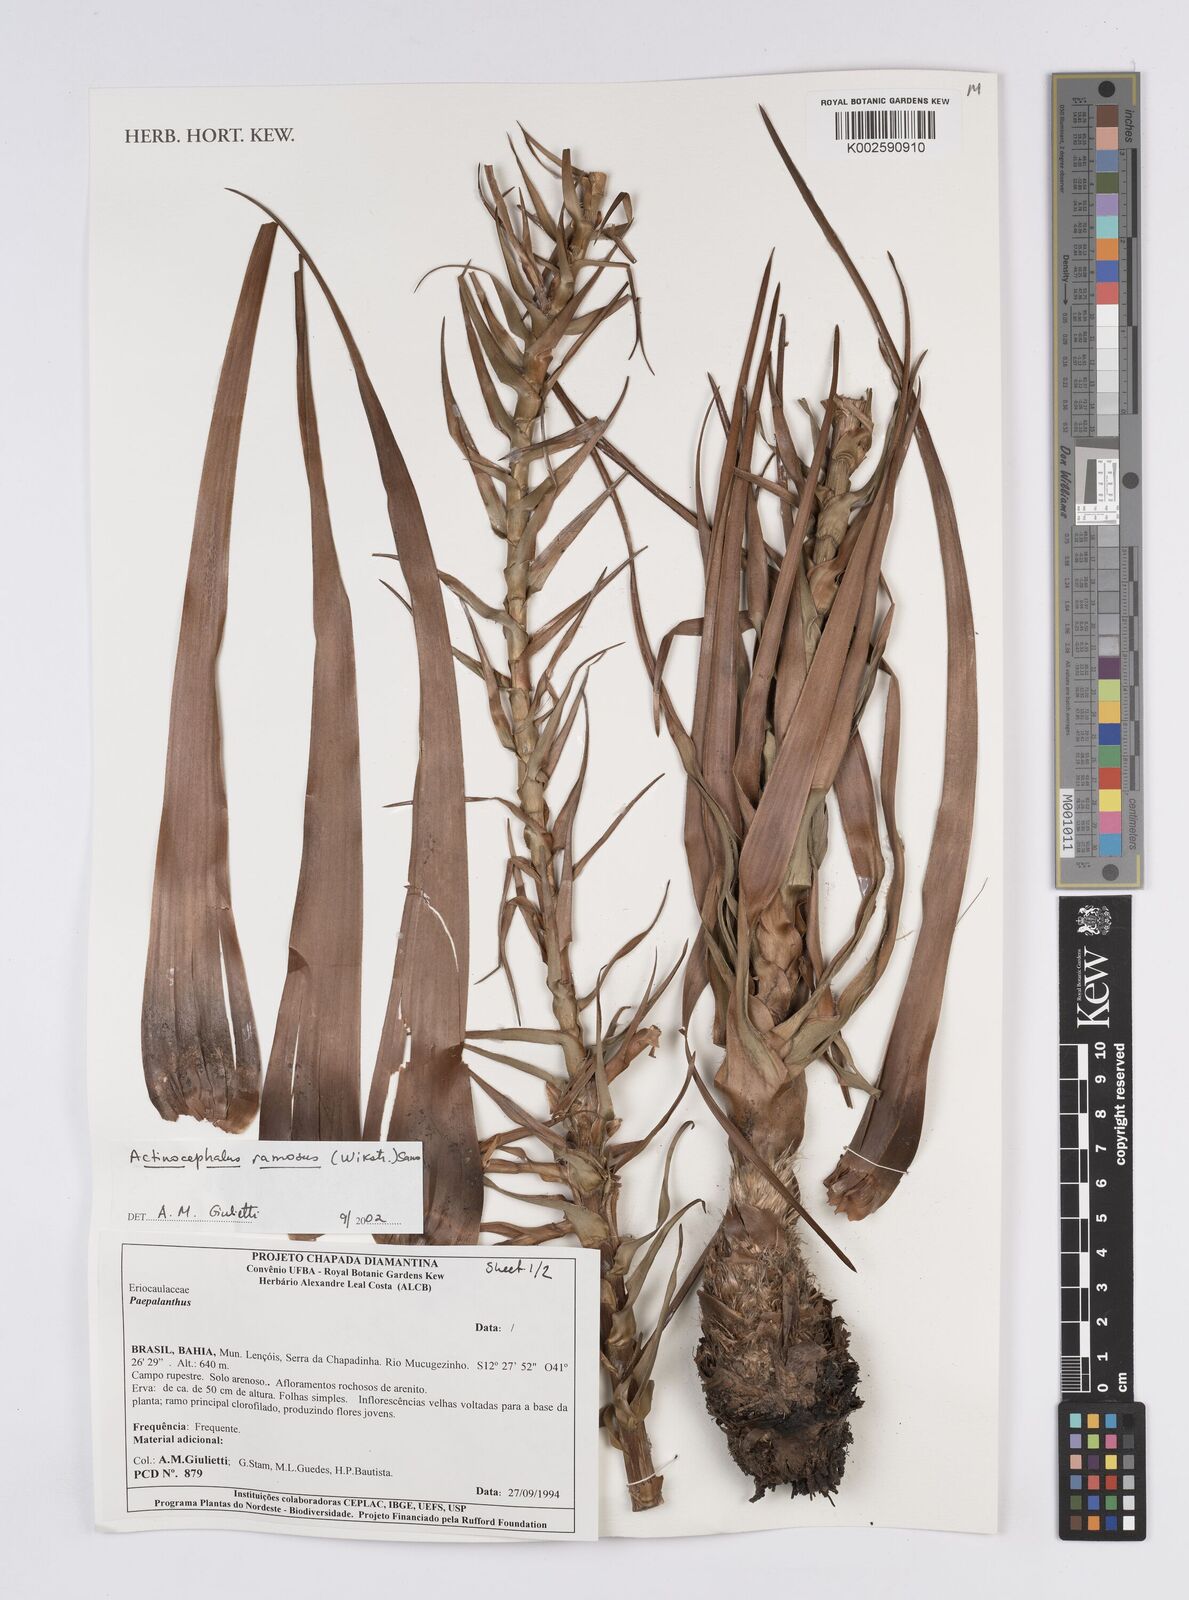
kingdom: Plantae
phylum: Tracheophyta
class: Liliopsida
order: Poales
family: Eriocaulaceae
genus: Paepalanthus
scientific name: Paepalanthus ramosus
